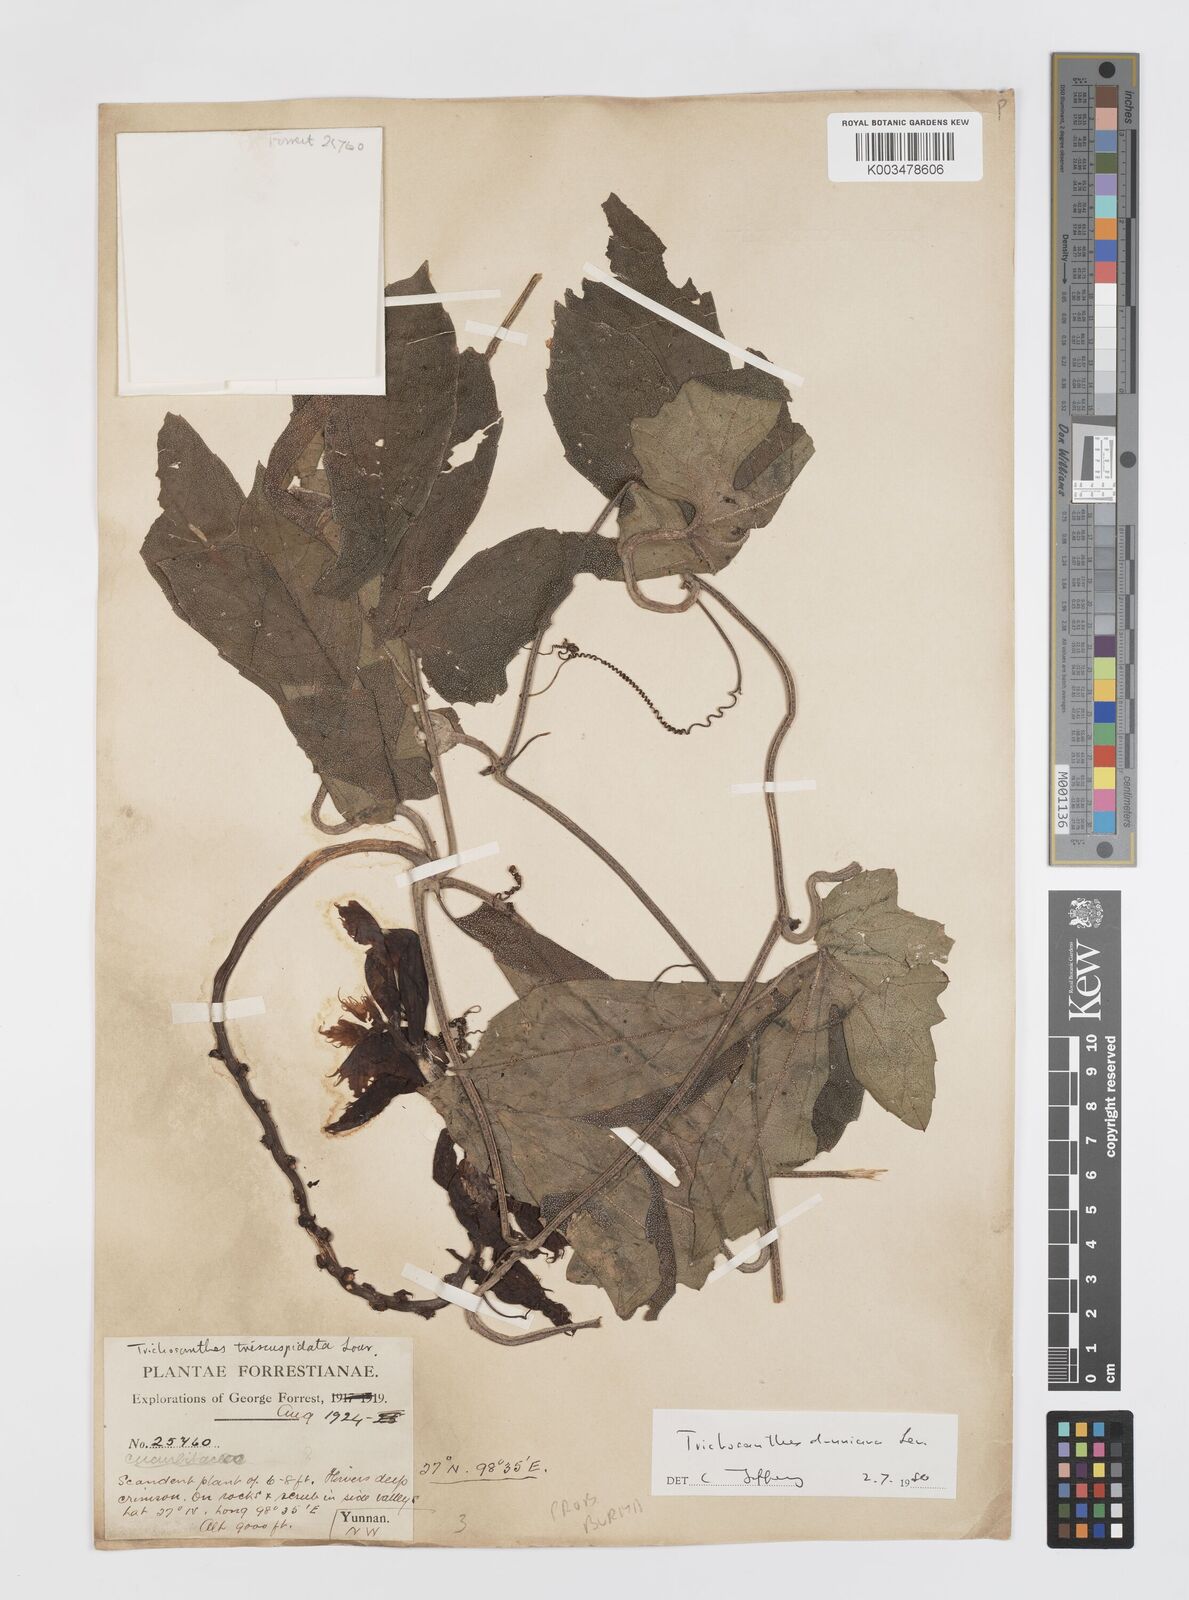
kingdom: Plantae
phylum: Tracheophyta
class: Magnoliopsida
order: Cucurbitales
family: Cucurbitaceae
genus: Trichosanthes
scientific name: Trichosanthes dunniana
